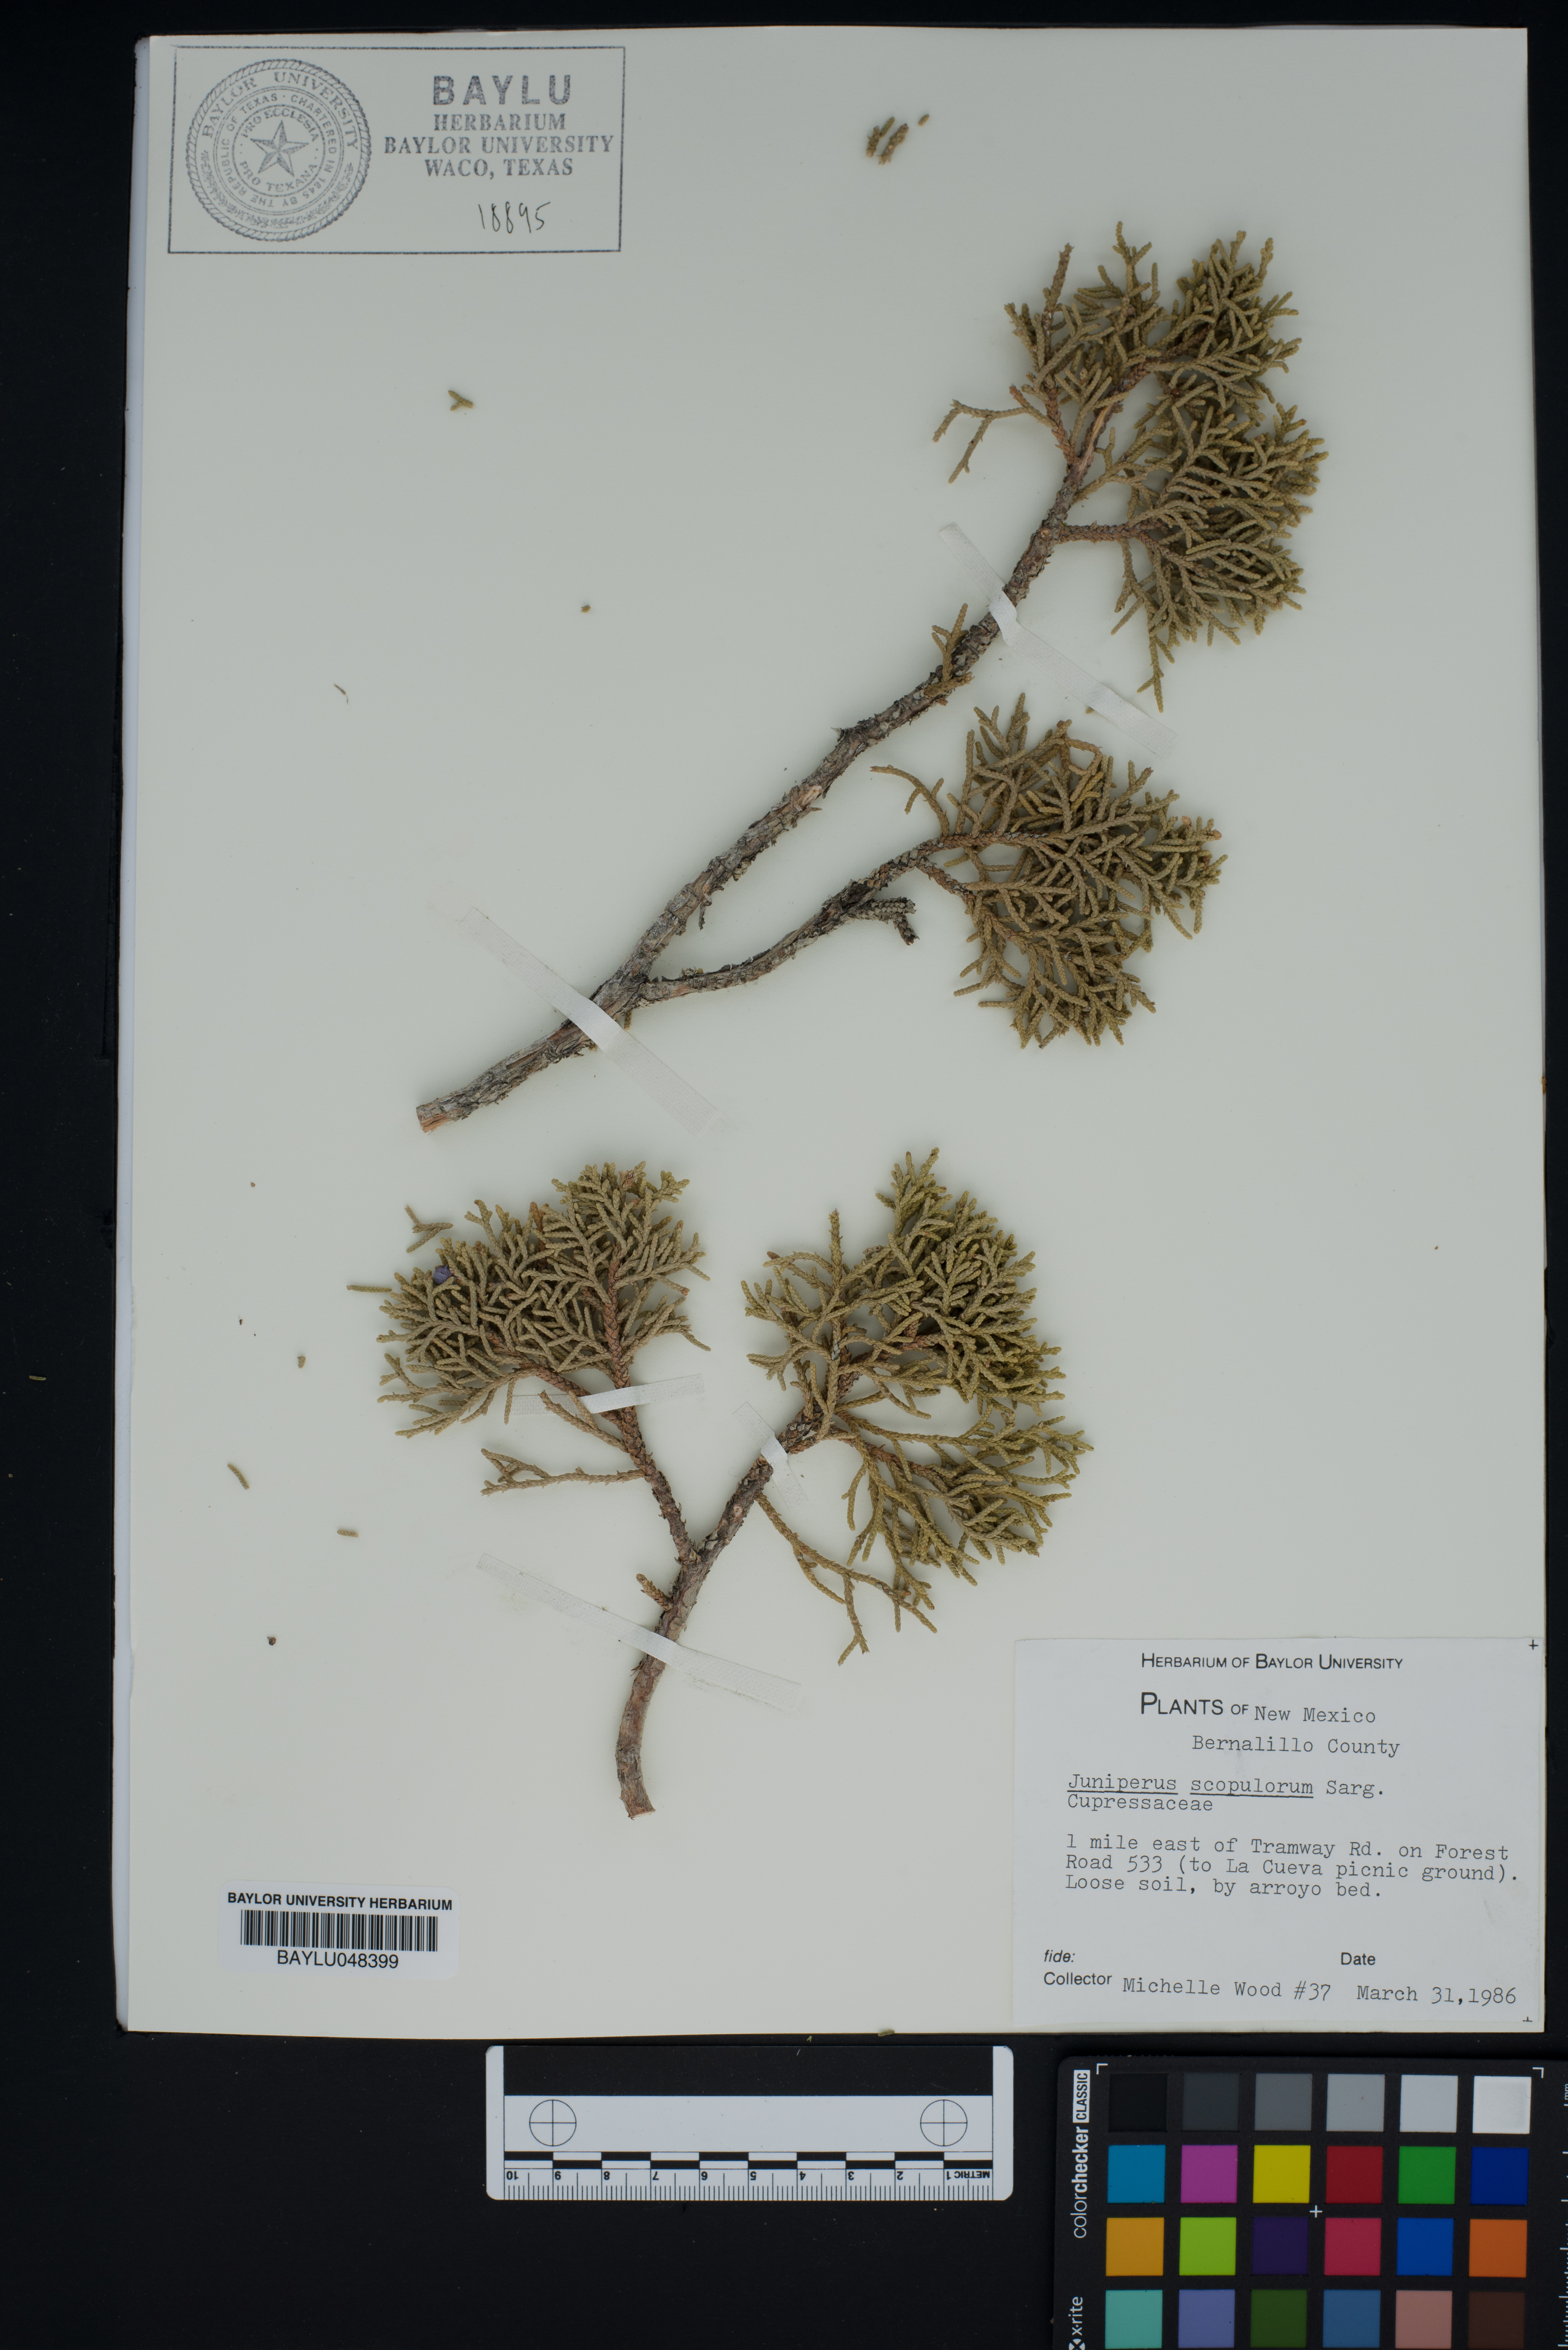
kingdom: Plantae
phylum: Tracheophyta
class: Pinopsida
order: Pinales
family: Cupressaceae
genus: Juniperus
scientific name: Juniperus scopulorum
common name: Rocky mountain juniper
